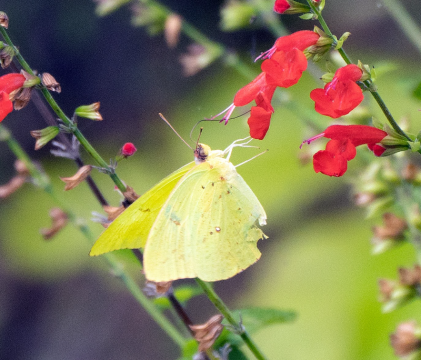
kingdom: Animalia
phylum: Arthropoda
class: Insecta
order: Lepidoptera
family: Pieridae
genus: Phoebis
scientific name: Phoebis sennae
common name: Cloudless Sulphur
